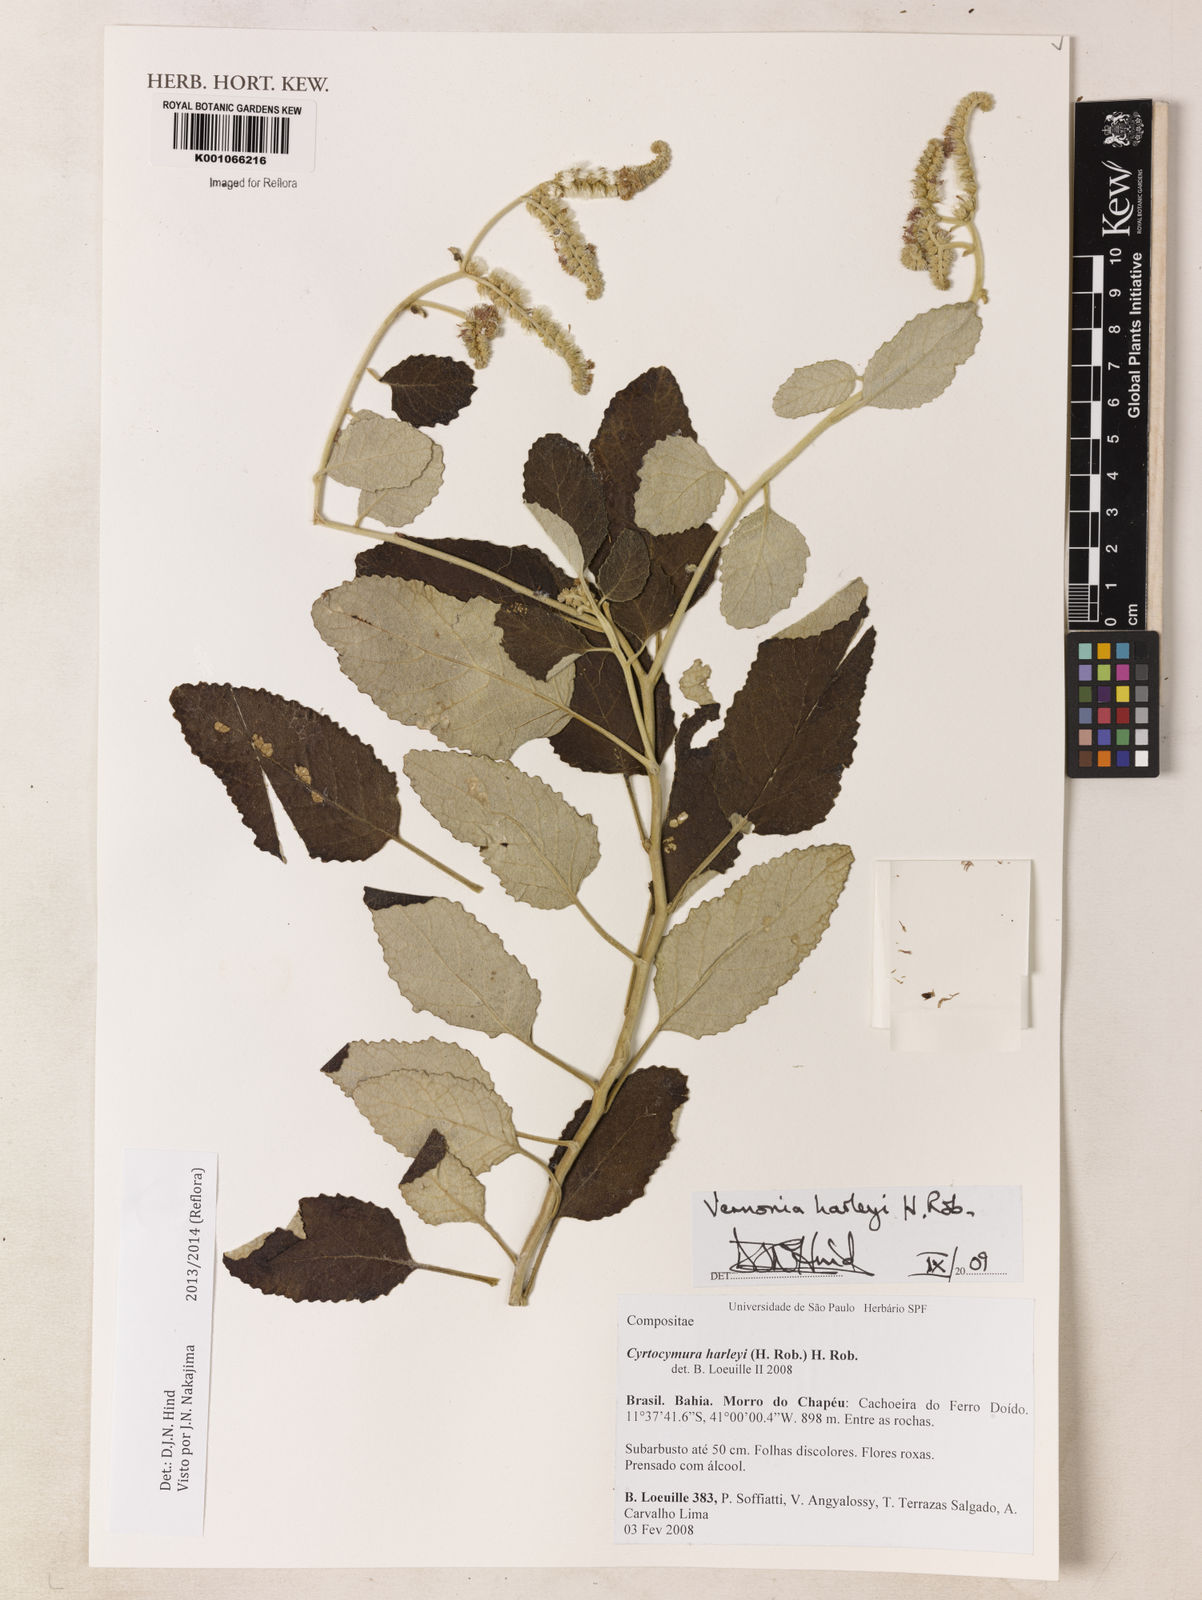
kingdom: Plantae
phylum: Tracheophyta
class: Magnoliopsida
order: Asterales
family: Asteraceae
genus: Cyrtocymura
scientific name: Cyrtocymura harleyi
